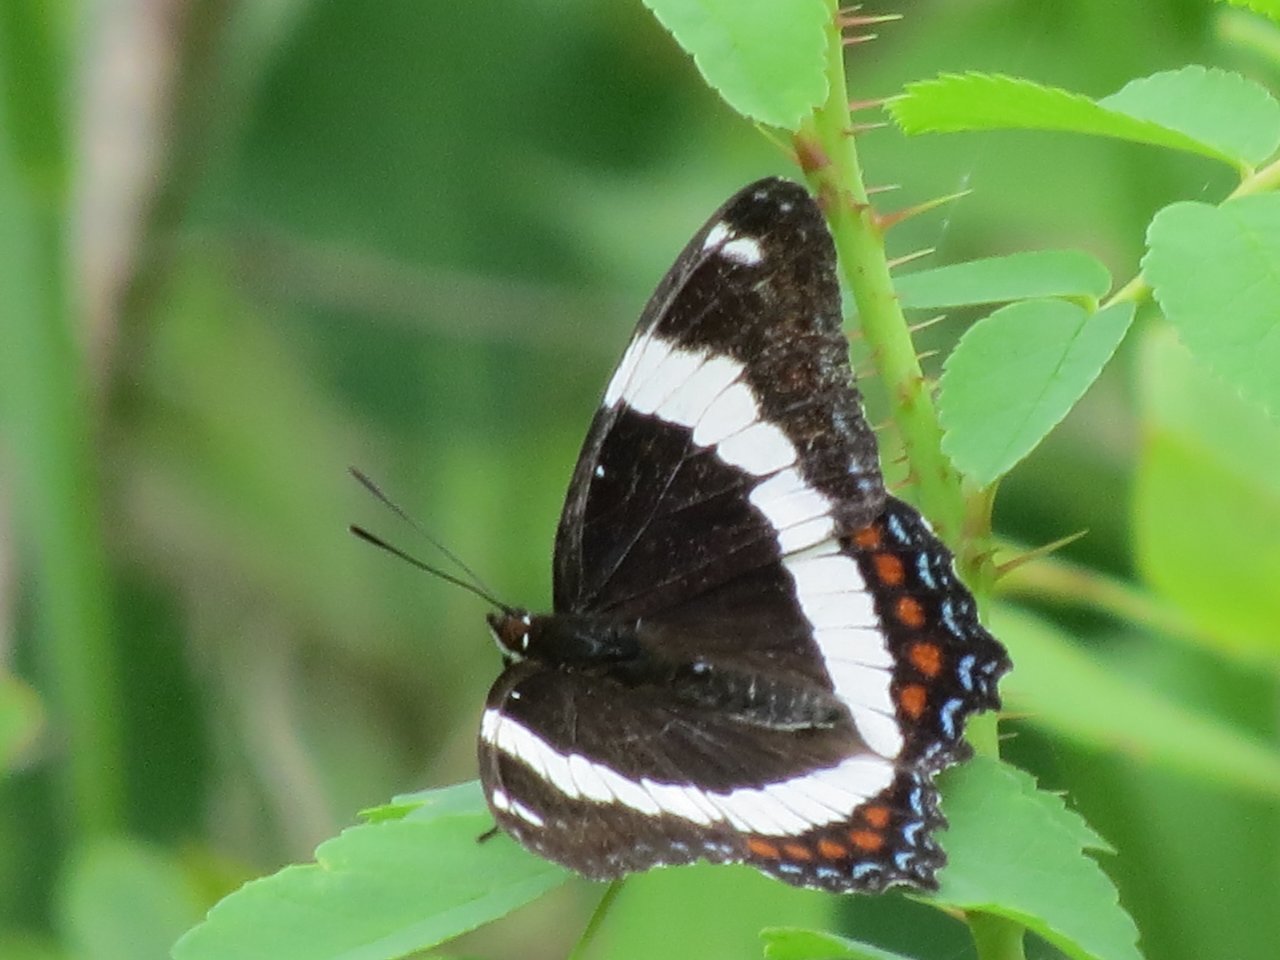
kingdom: Animalia
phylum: Arthropoda
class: Insecta
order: Lepidoptera
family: Nymphalidae
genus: Limenitis
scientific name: Limenitis arthemis
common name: Red-spotted Admiral
